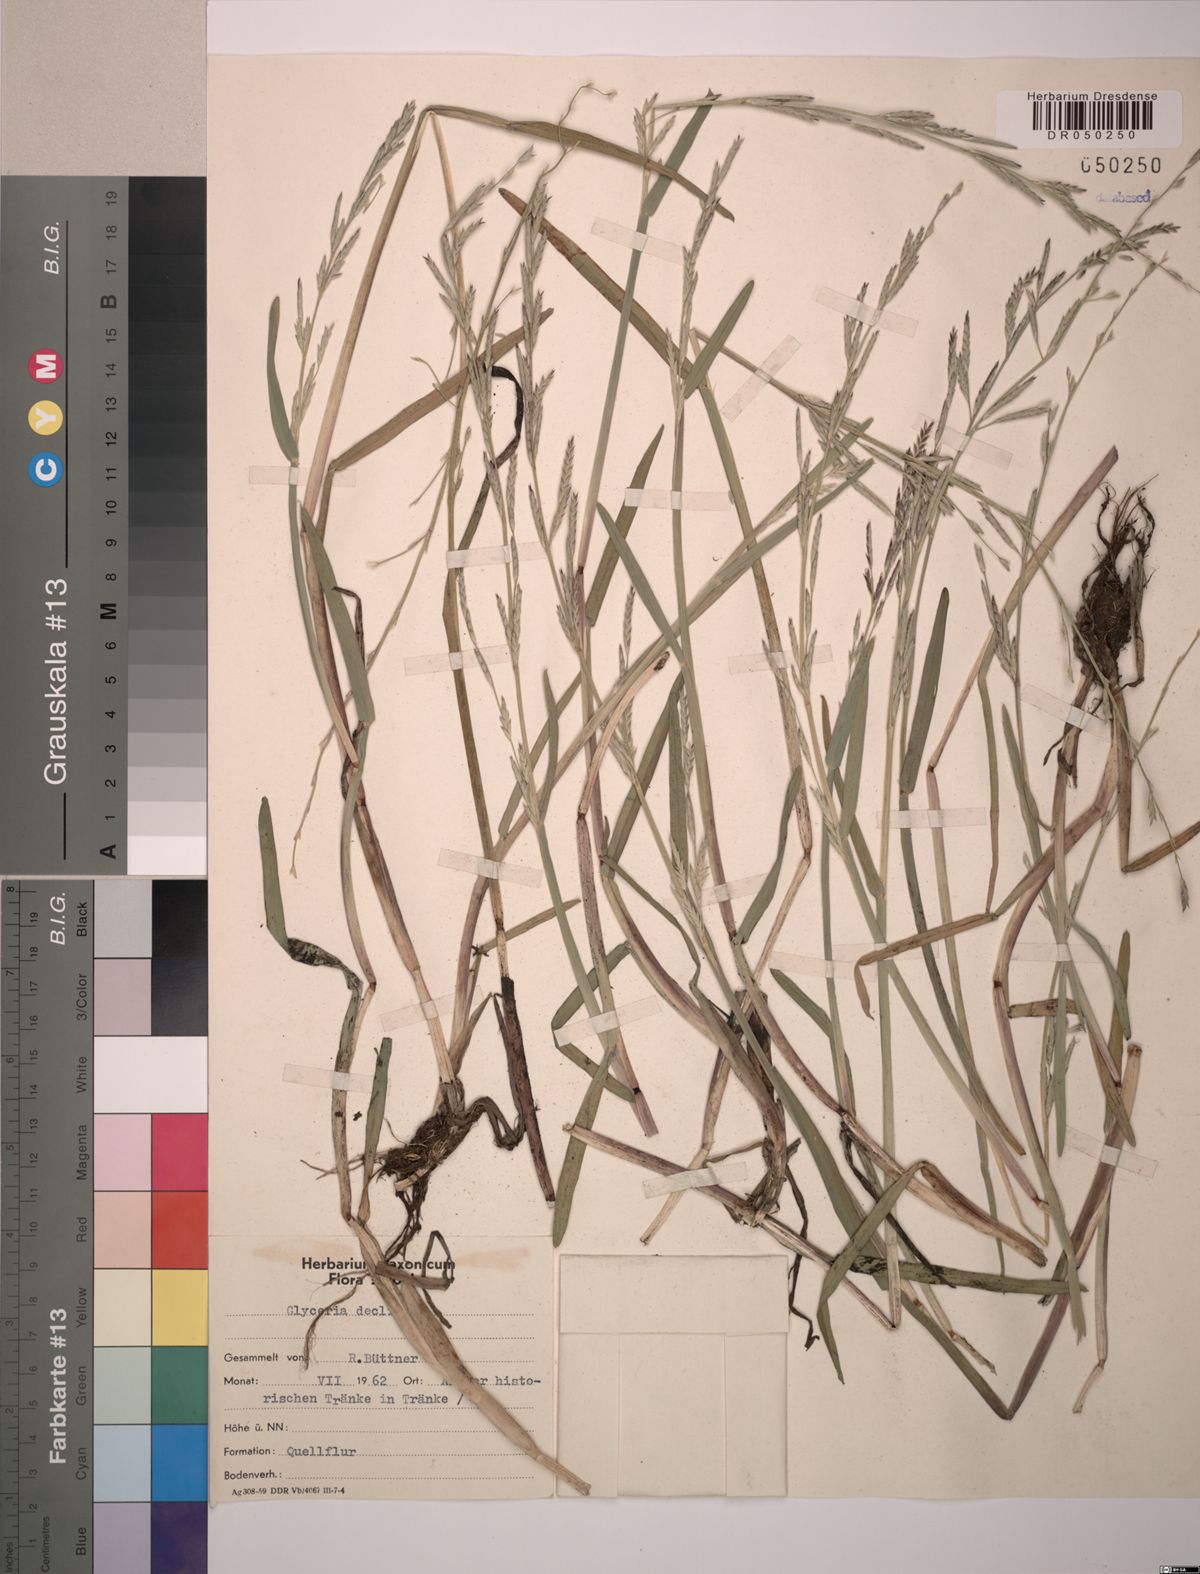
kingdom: Plantae
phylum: Tracheophyta
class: Liliopsida
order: Poales
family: Poaceae
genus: Glyceria
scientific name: Glyceria declinata
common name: Small sweet-grass
